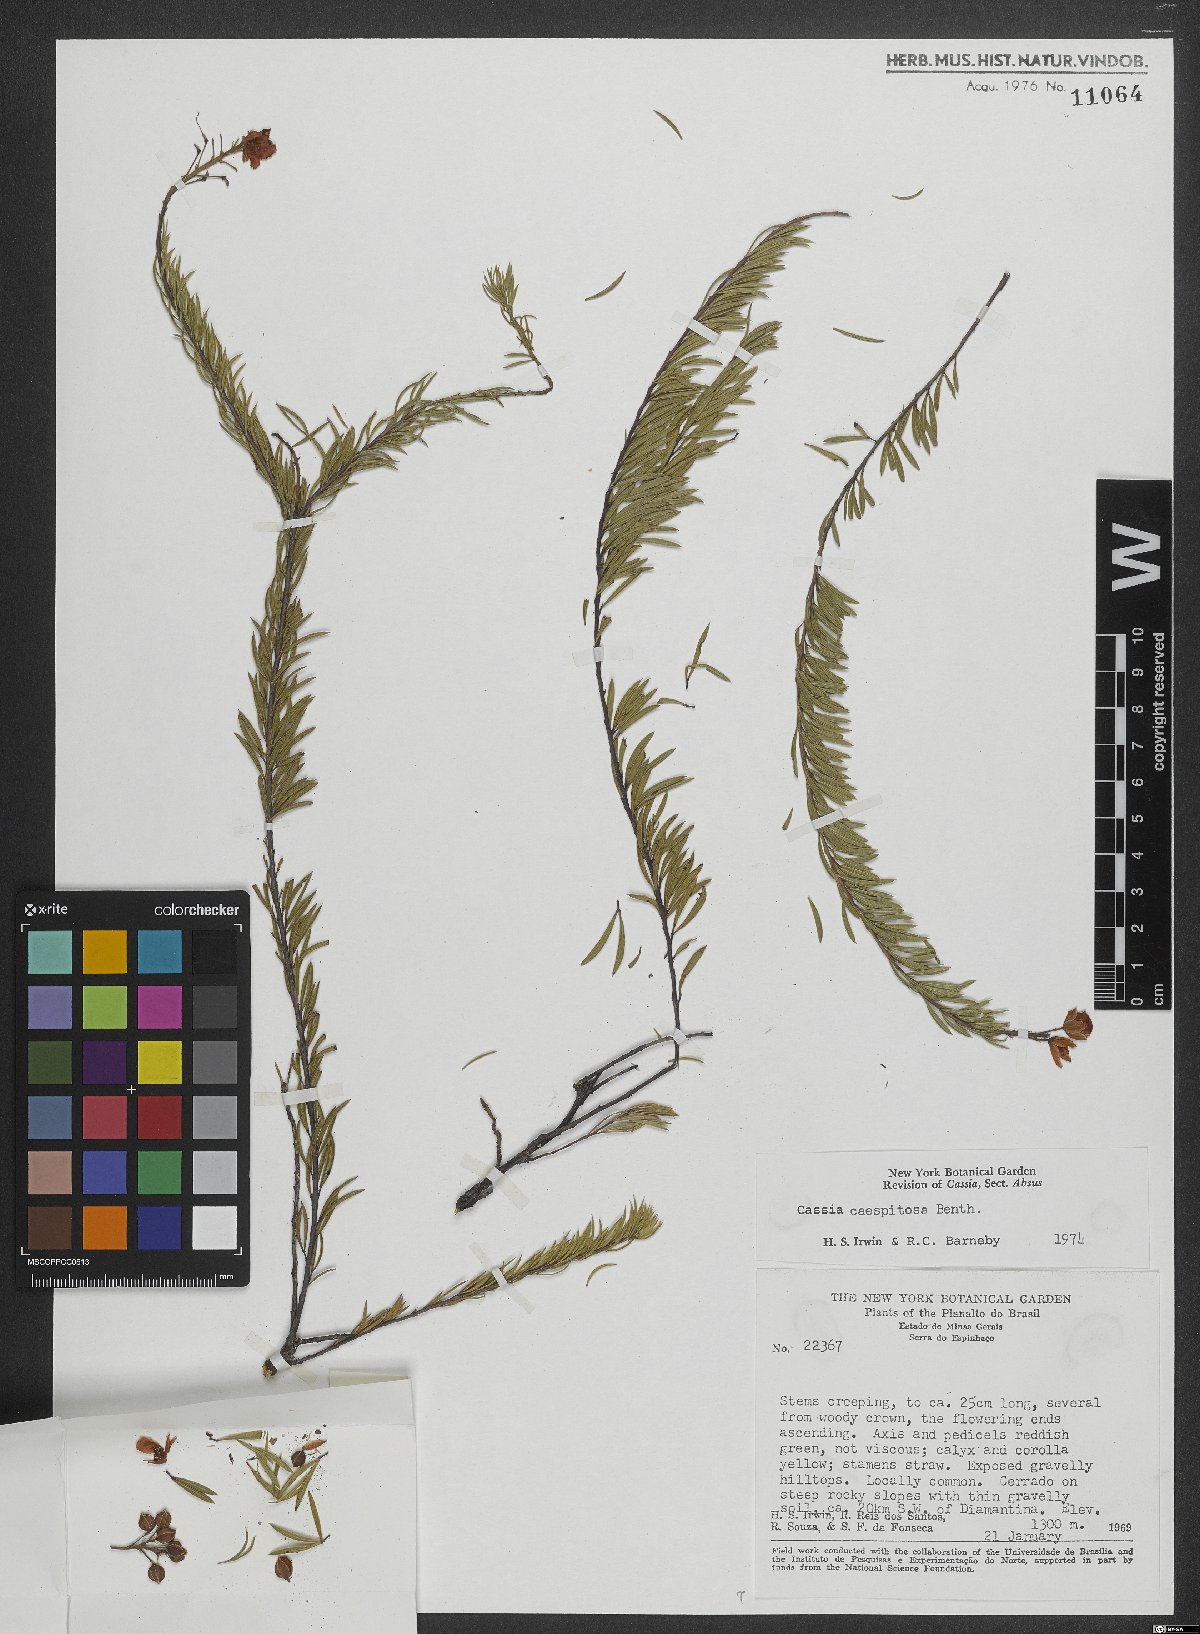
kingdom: Plantae
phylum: Tracheophyta
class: Magnoliopsida
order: Fabales
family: Fabaceae
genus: Chamaecrista
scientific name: Chamaecrista caespitosa
